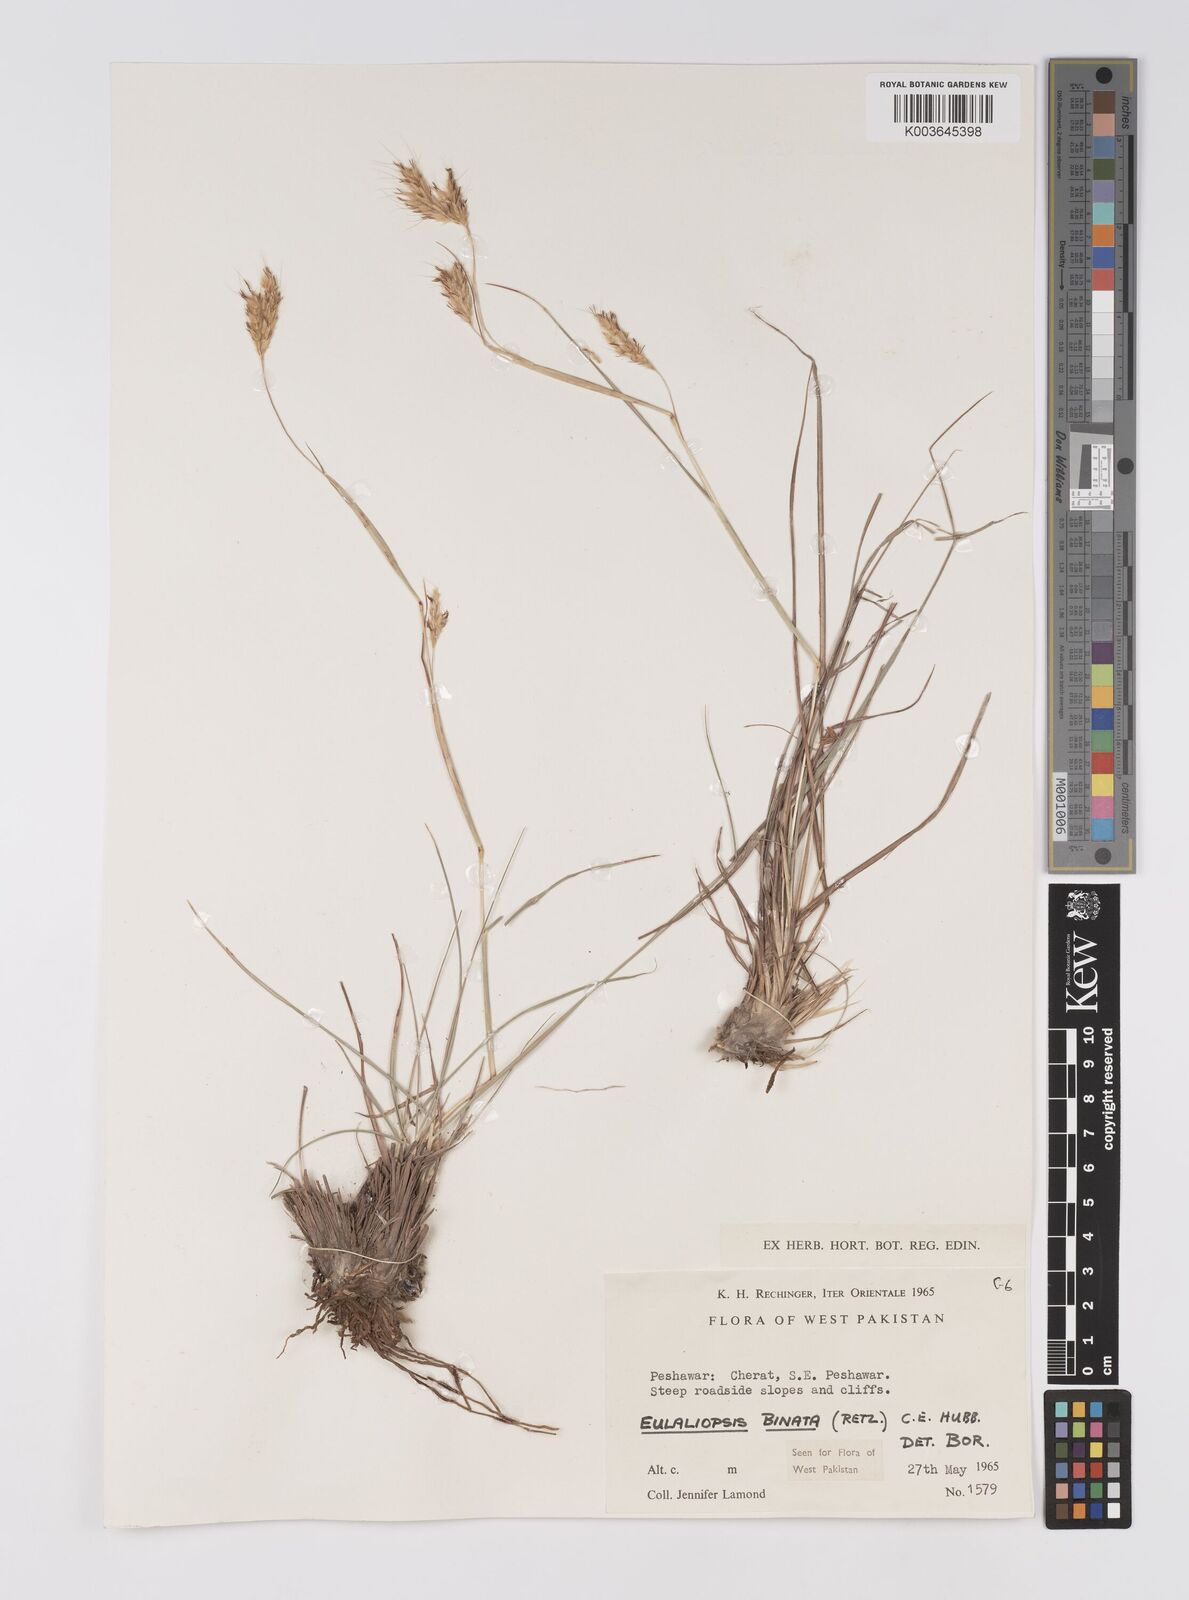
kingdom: Plantae
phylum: Tracheophyta
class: Liliopsida
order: Poales
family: Poaceae
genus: Eulaliopsis
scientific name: Eulaliopsis binata
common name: Baib grass
